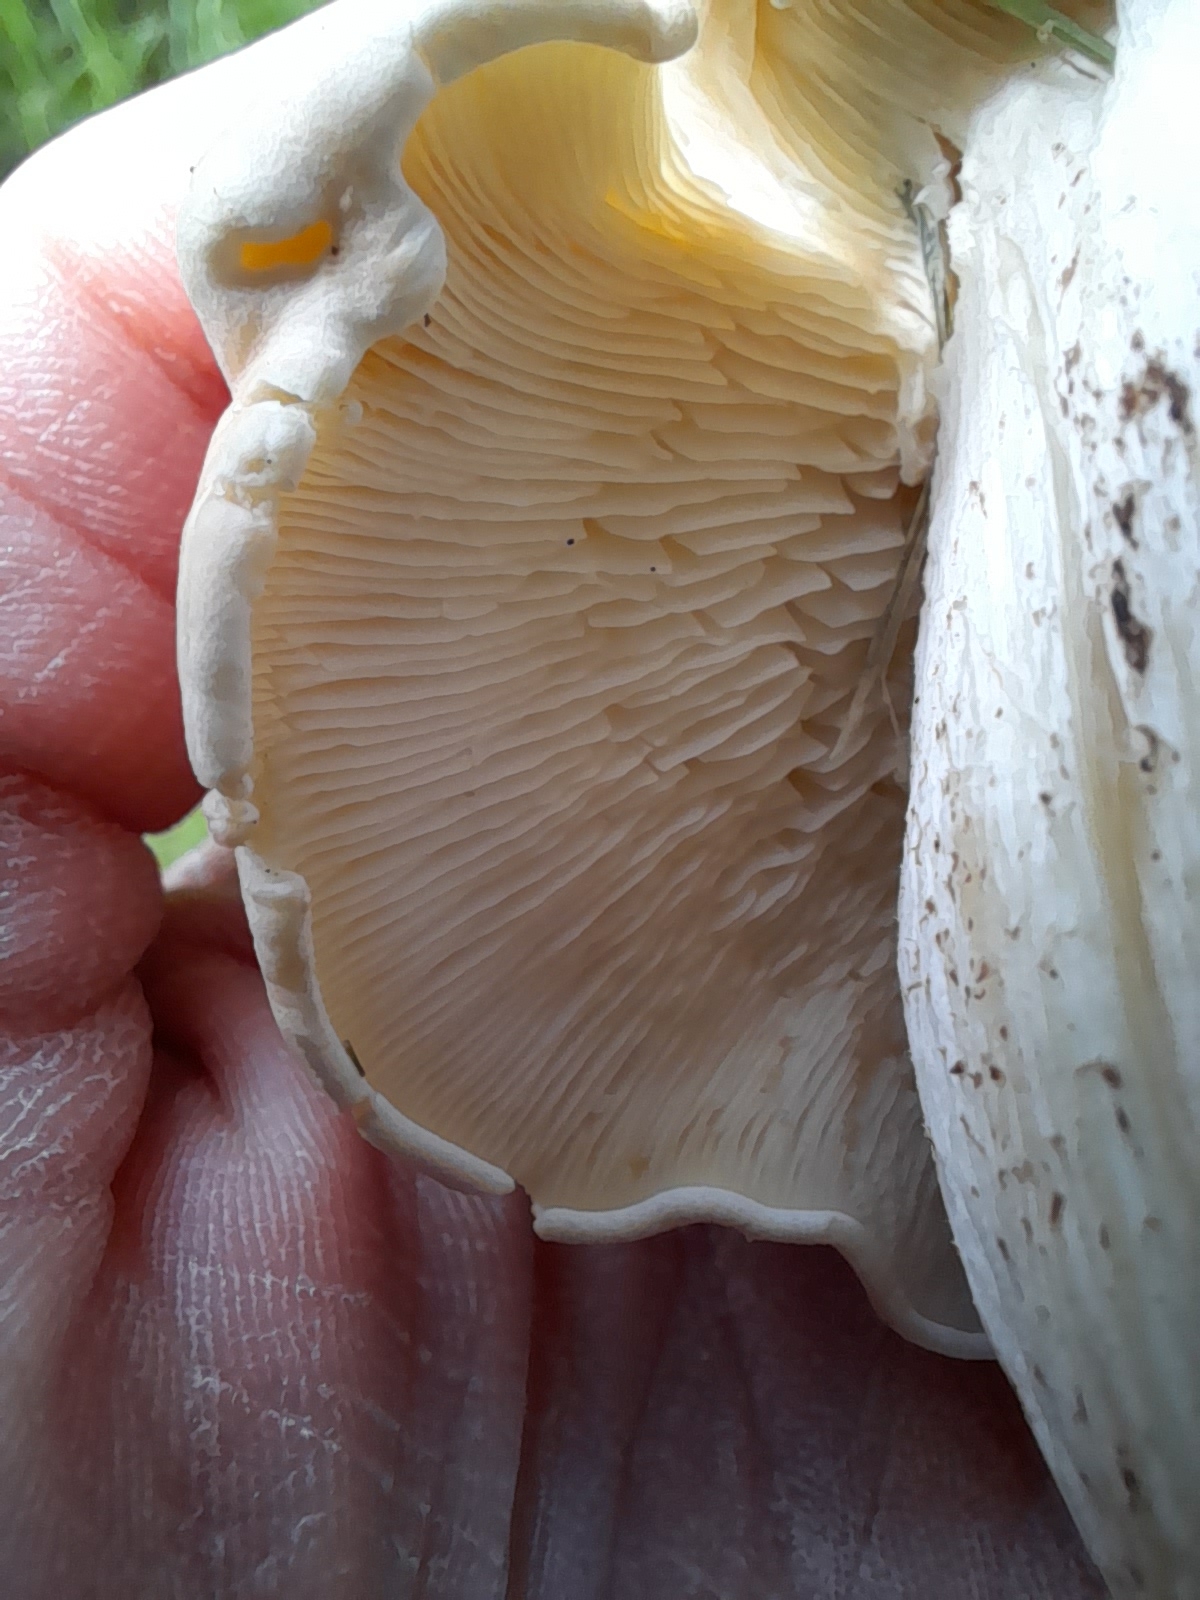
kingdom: Fungi
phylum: Basidiomycota
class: Agaricomycetes
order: Agaricales
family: Lyophyllaceae
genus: Calocybe
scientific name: Calocybe gambosa
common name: vårmusseron
